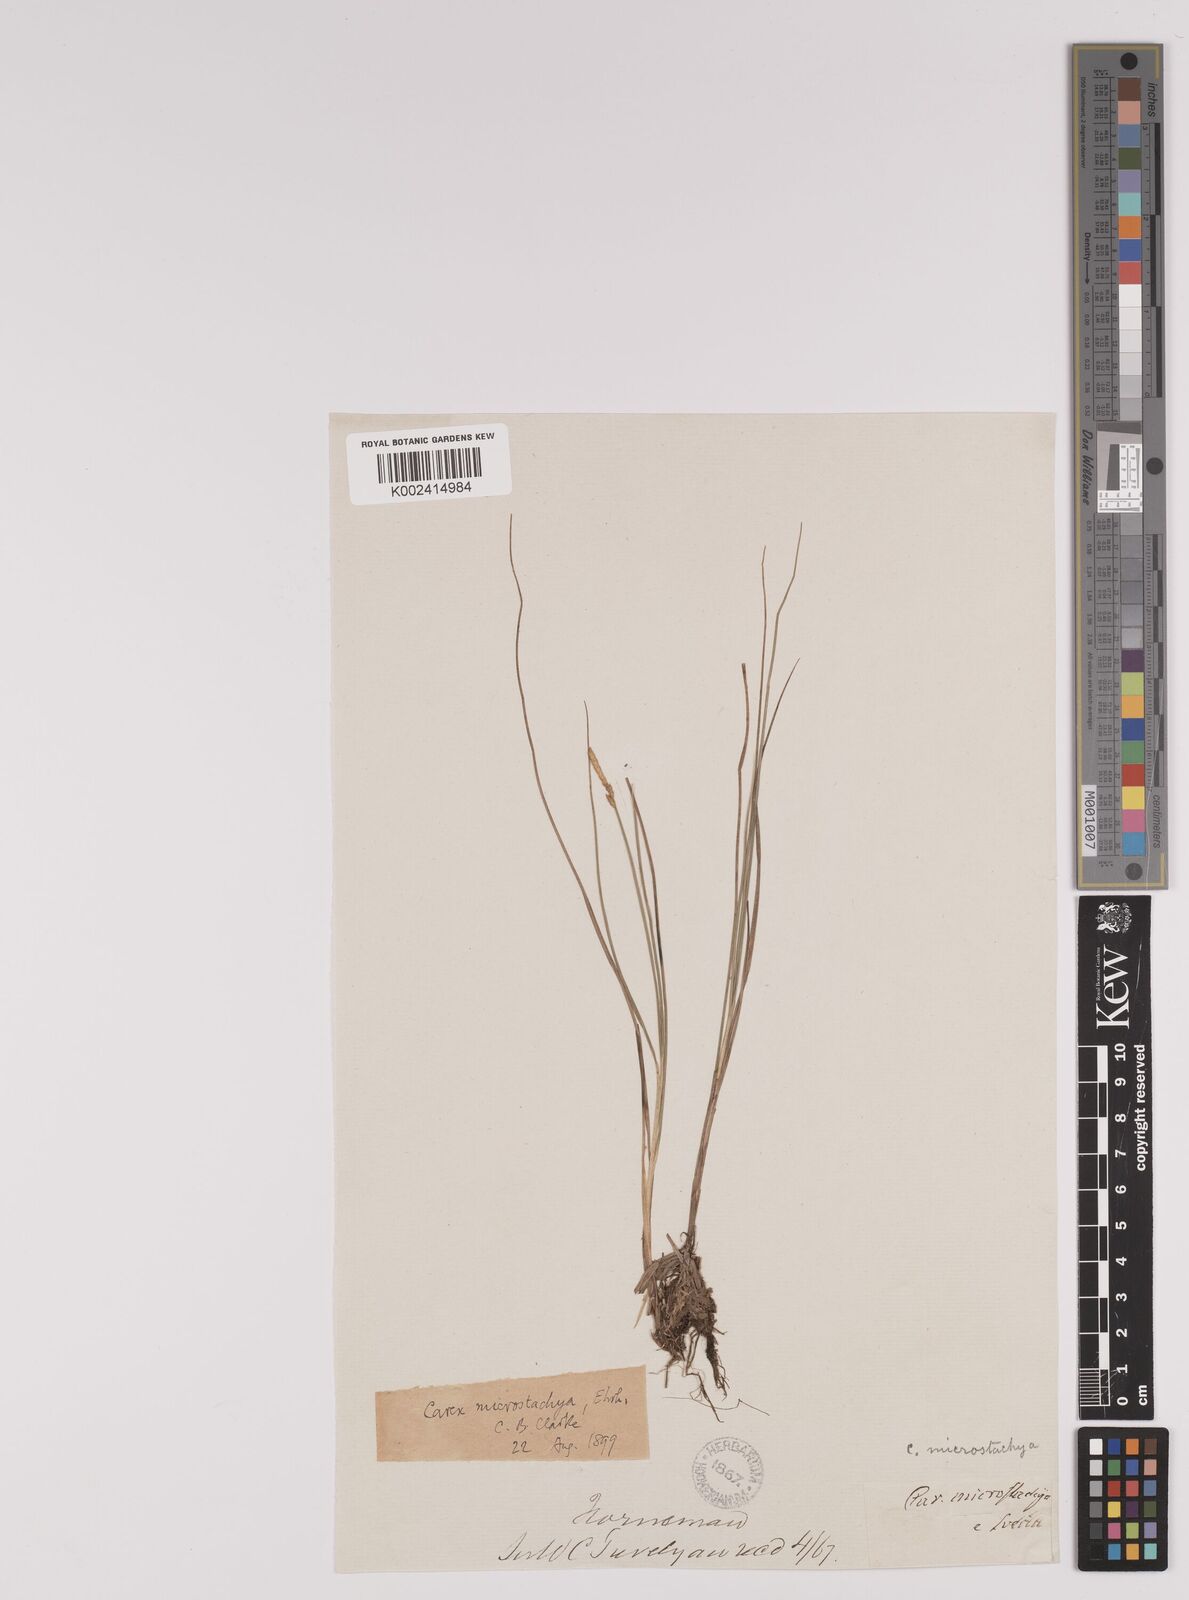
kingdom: Plantae
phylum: Tracheophyta
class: Liliopsida
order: Poales
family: Cyperaceae
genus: Carex
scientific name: Carex dioica
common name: Dioecious sedge
